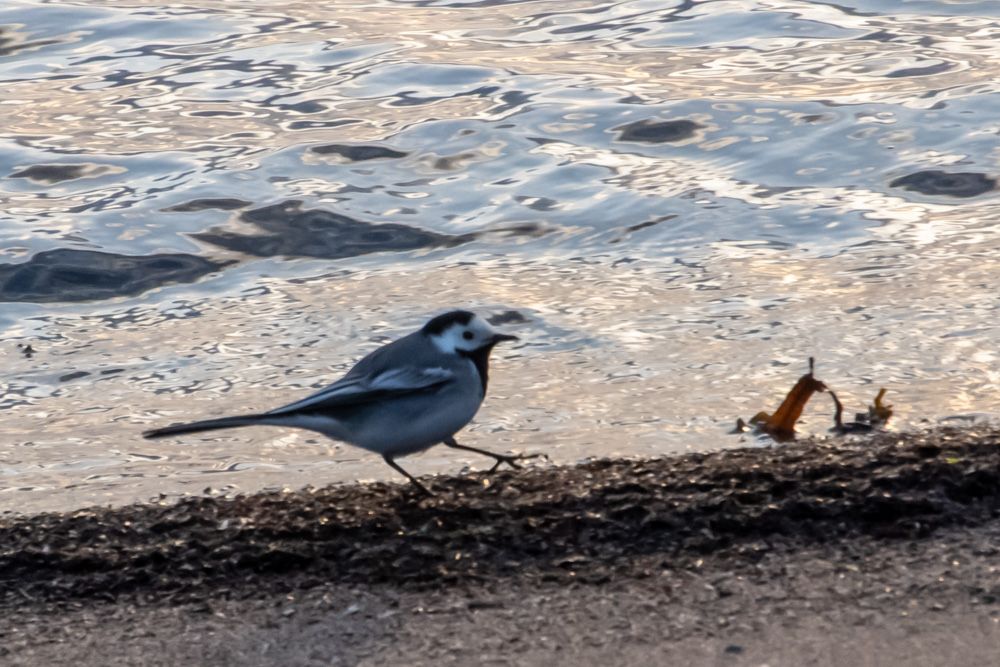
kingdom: Animalia
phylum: Chordata
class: Aves
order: Passeriformes
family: Motacillidae
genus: Motacilla
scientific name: Motacilla alba
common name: White wagtail
